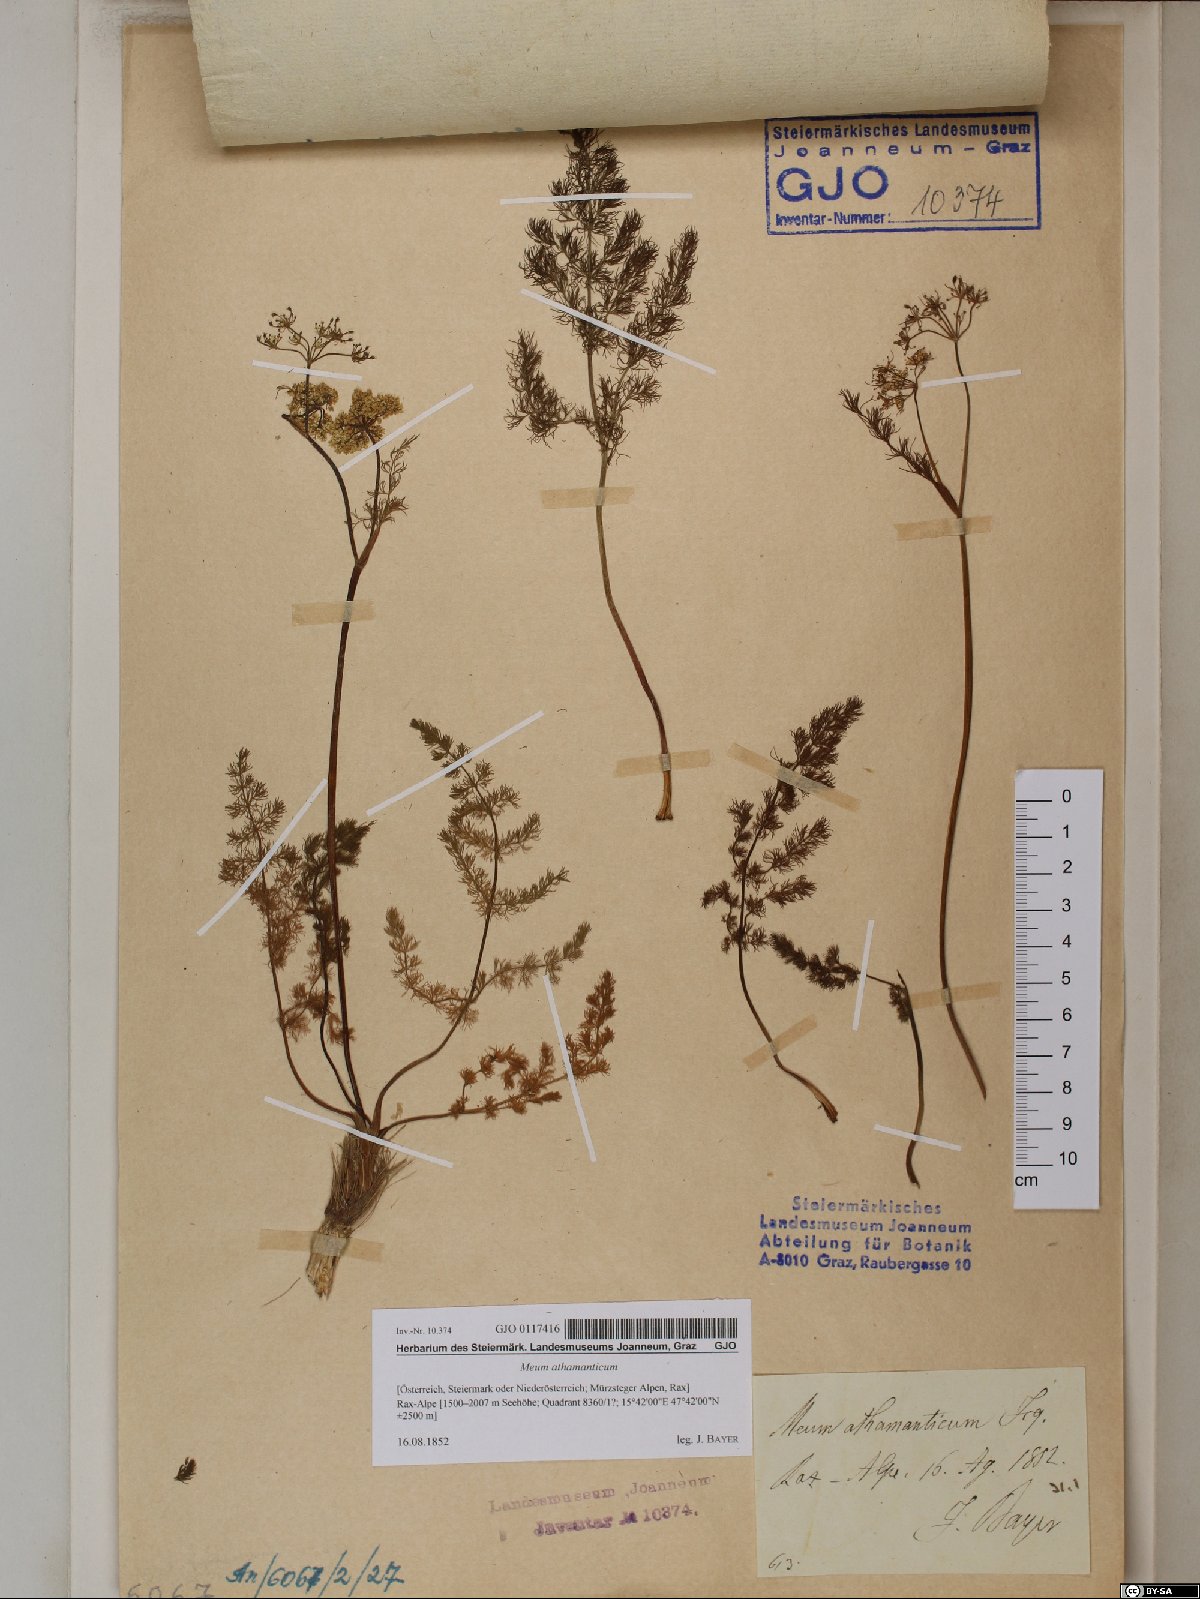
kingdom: Plantae
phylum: Tracheophyta
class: Magnoliopsida
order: Apiales
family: Apiaceae
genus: Meum
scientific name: Meum athamanticum
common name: Spignel
